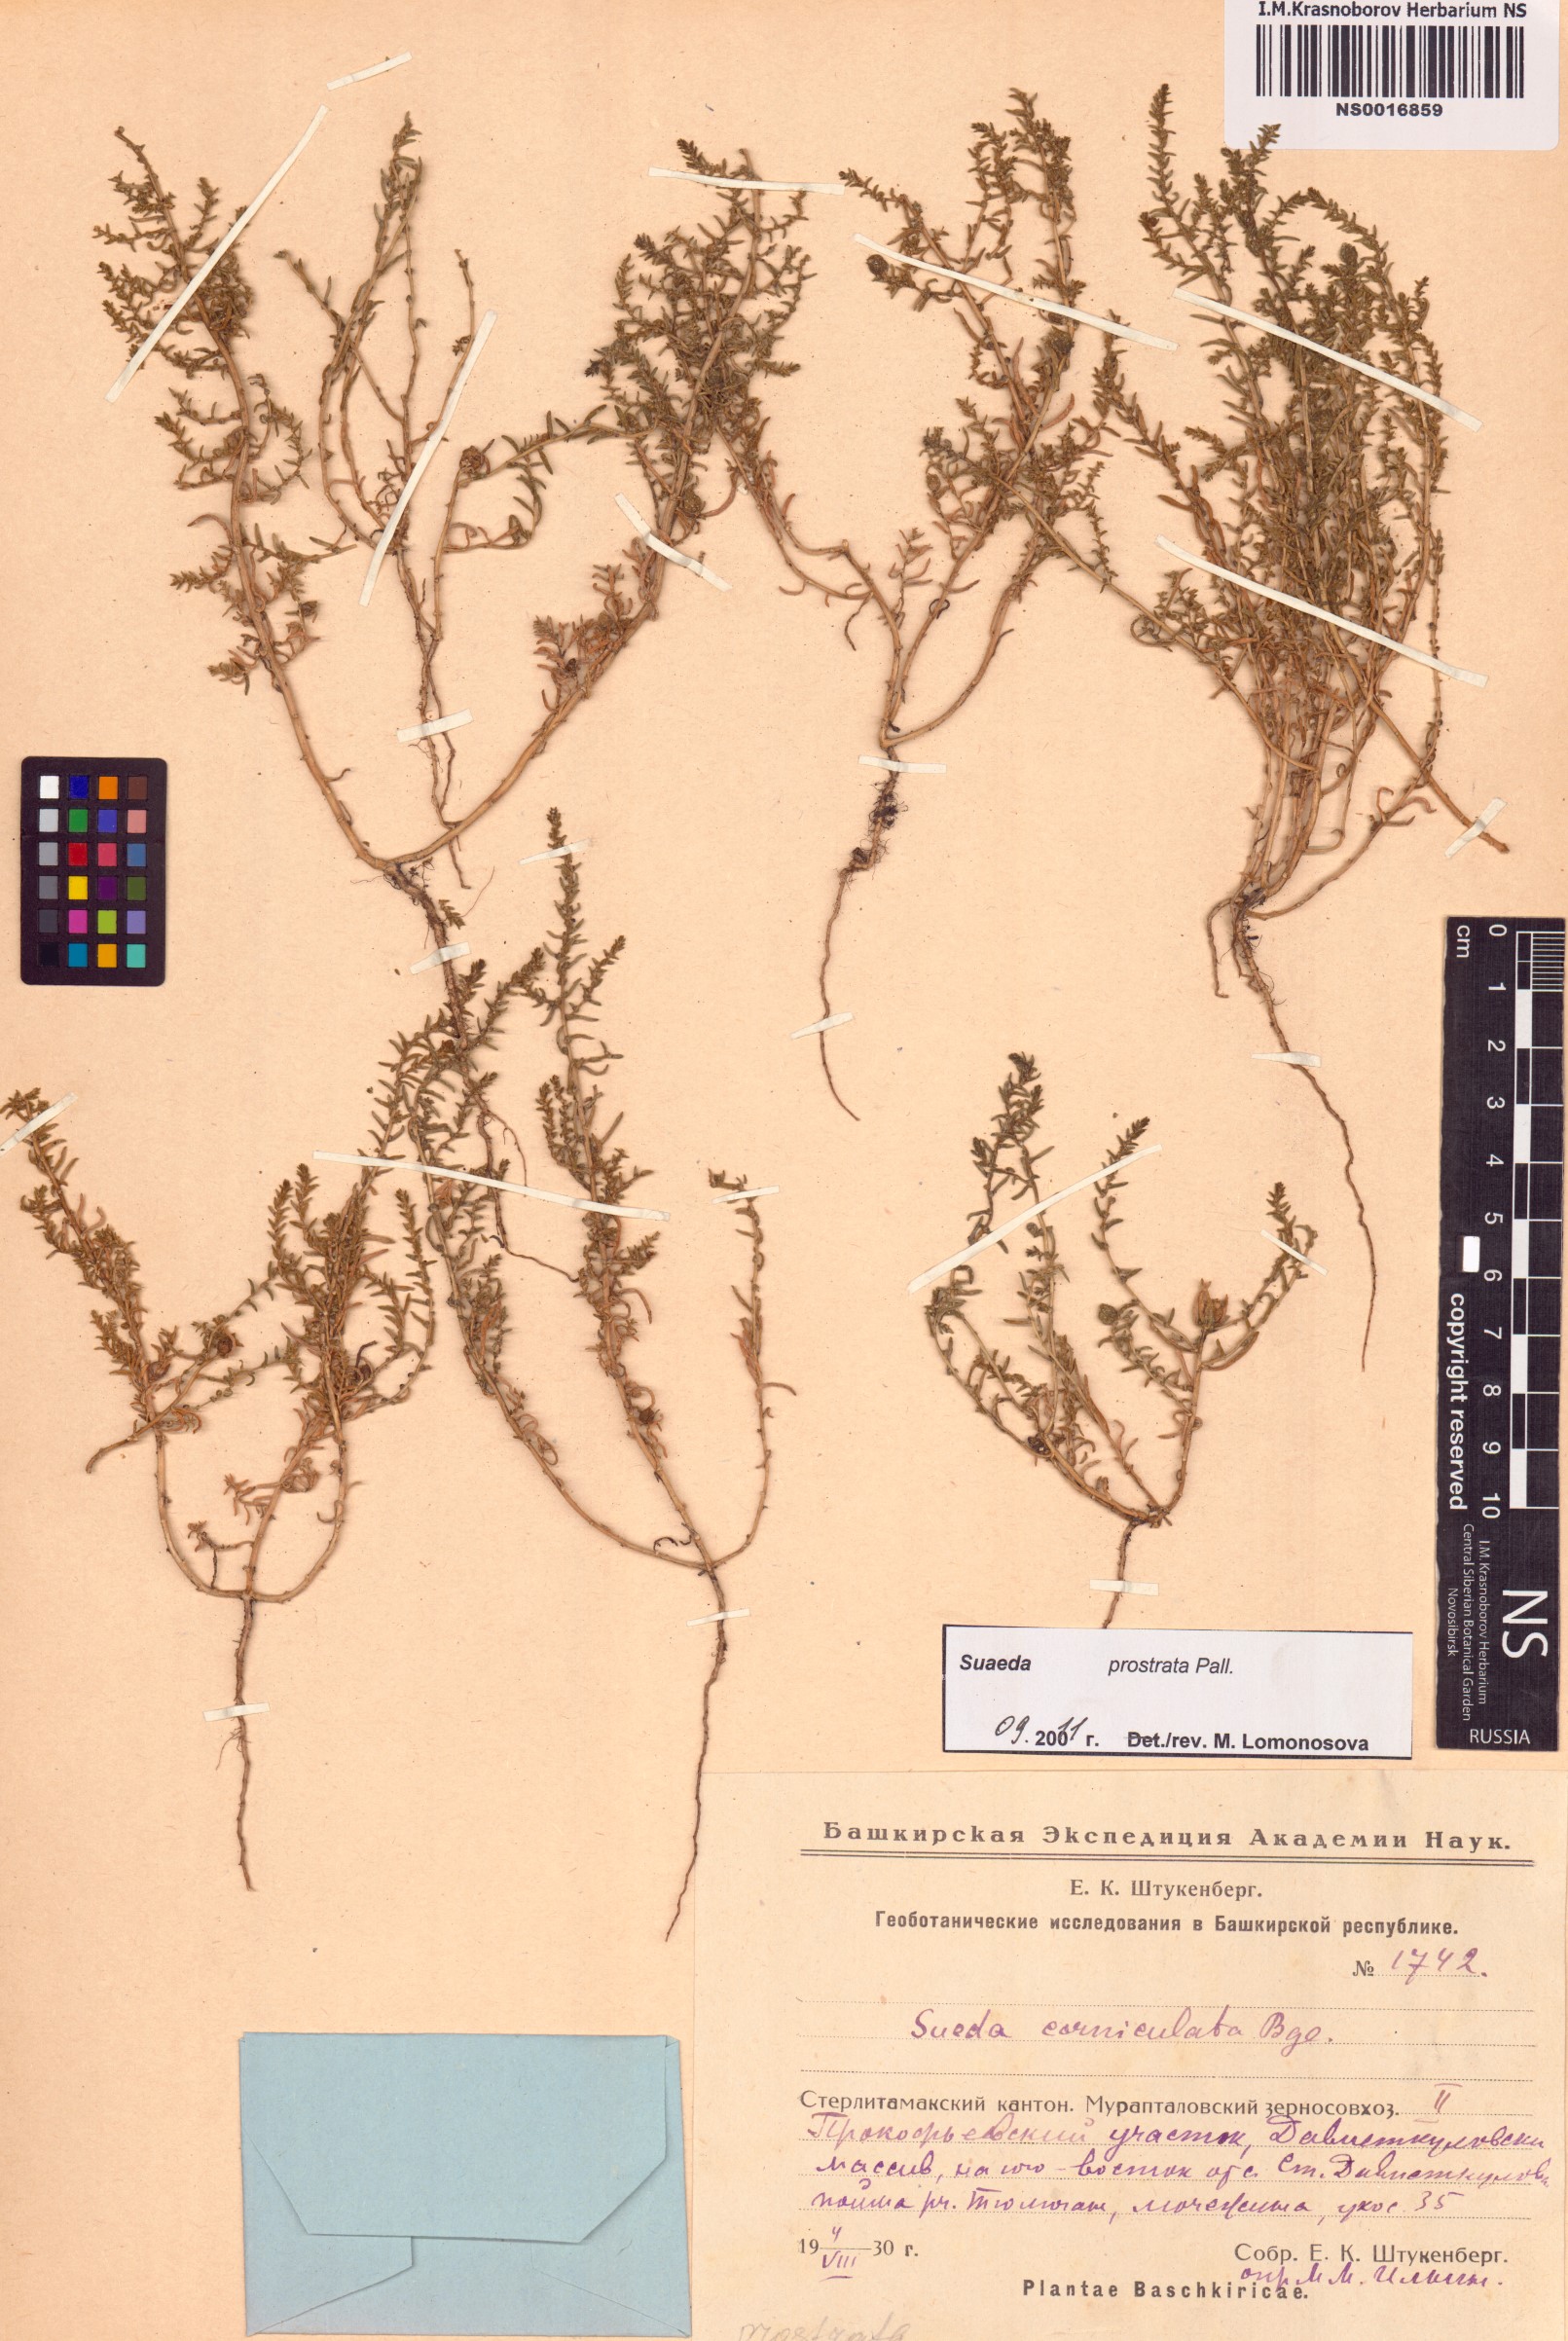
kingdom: Plantae
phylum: Tracheophyta
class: Magnoliopsida
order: Caryophyllales
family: Amaranthaceae
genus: Suaeda
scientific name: Suaeda prostrata
